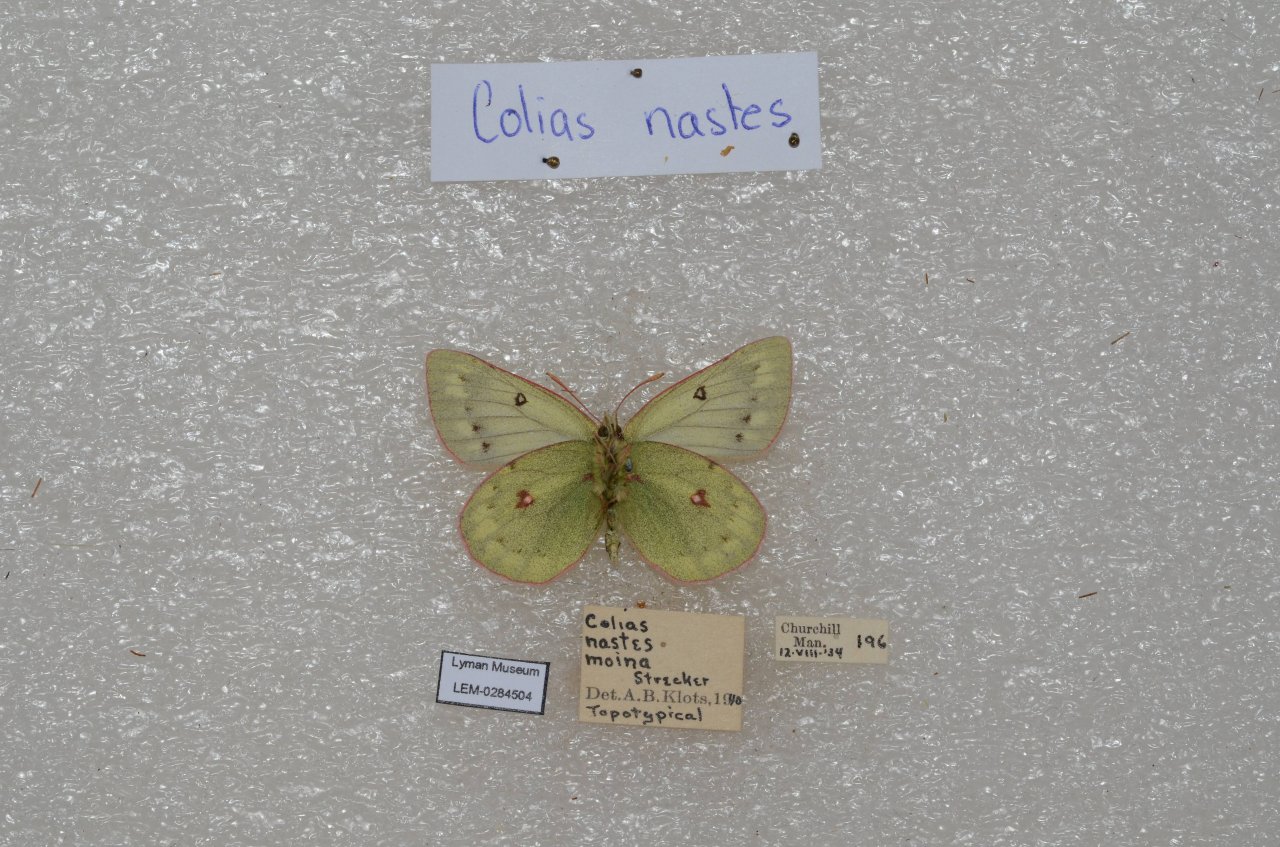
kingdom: Animalia
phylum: Arthropoda
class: Insecta
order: Lepidoptera
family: Pieridae
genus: Colias
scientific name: Colias nastes
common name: Labrador Sulphur
